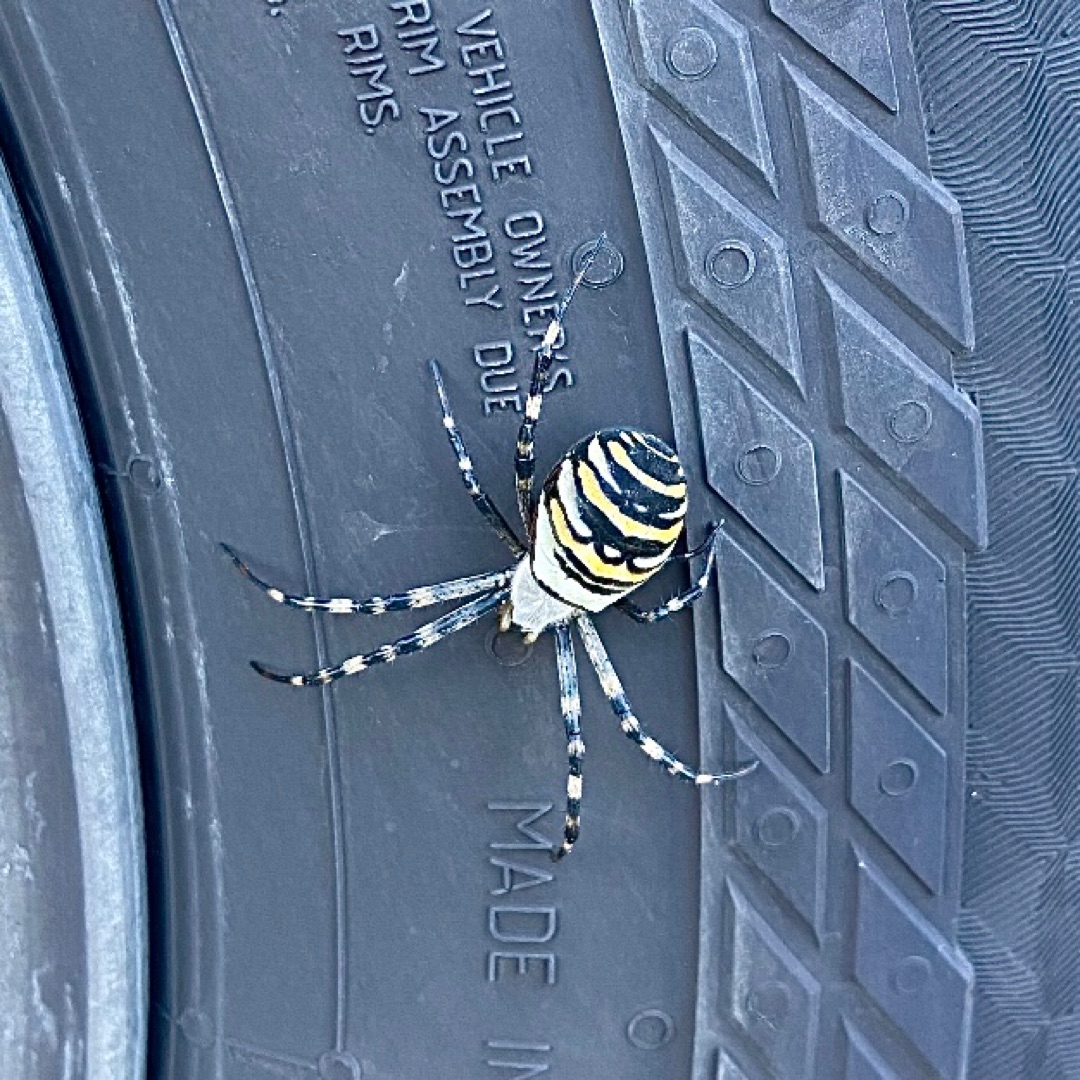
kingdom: Animalia
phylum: Arthropoda
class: Arachnida
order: Araneae
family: Araneidae
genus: Argiope
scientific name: Argiope bruennichi
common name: Hvepseedderkop
